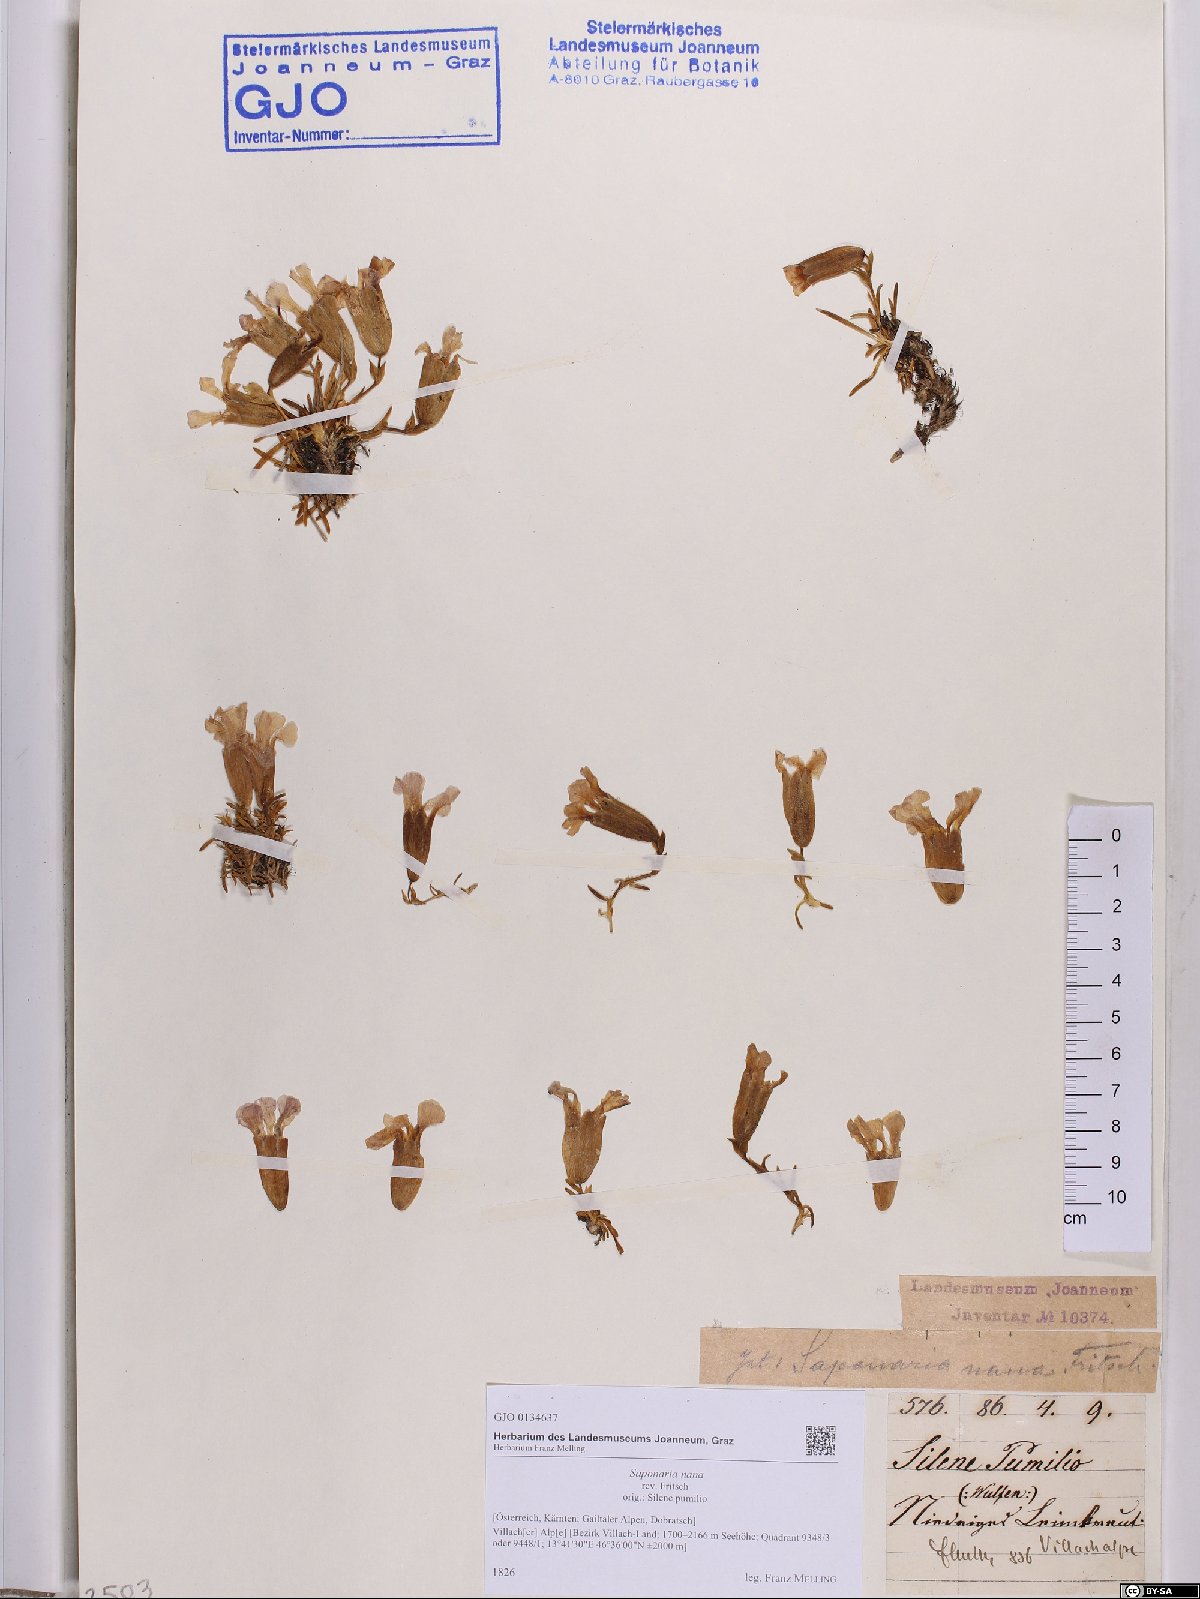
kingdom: Plantae
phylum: Tracheophyta
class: Magnoliopsida
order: Caryophyllales
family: Caryophyllaceae
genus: Saponaria
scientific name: Saponaria pumila
